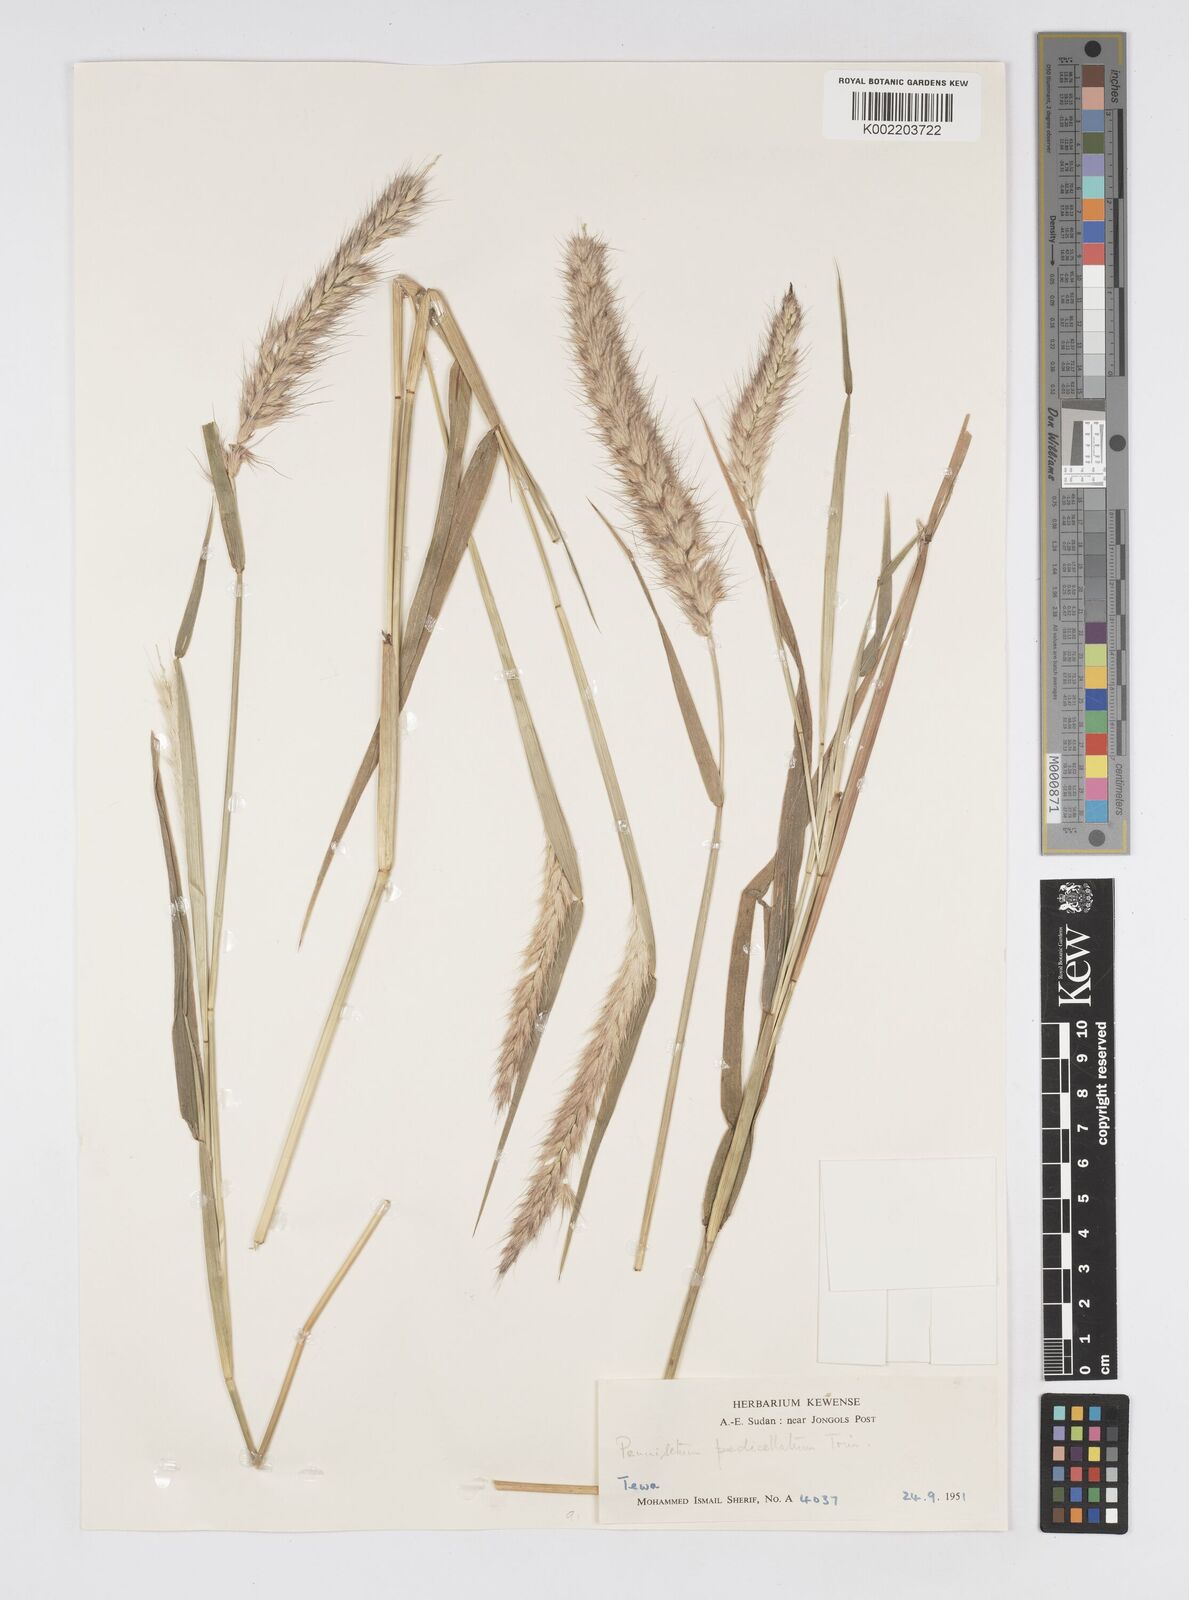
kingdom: Plantae
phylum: Tracheophyta
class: Liliopsida
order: Poales
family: Poaceae
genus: Cenchrus
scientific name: Cenchrus pedicellatus
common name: Hairy fountain grass
